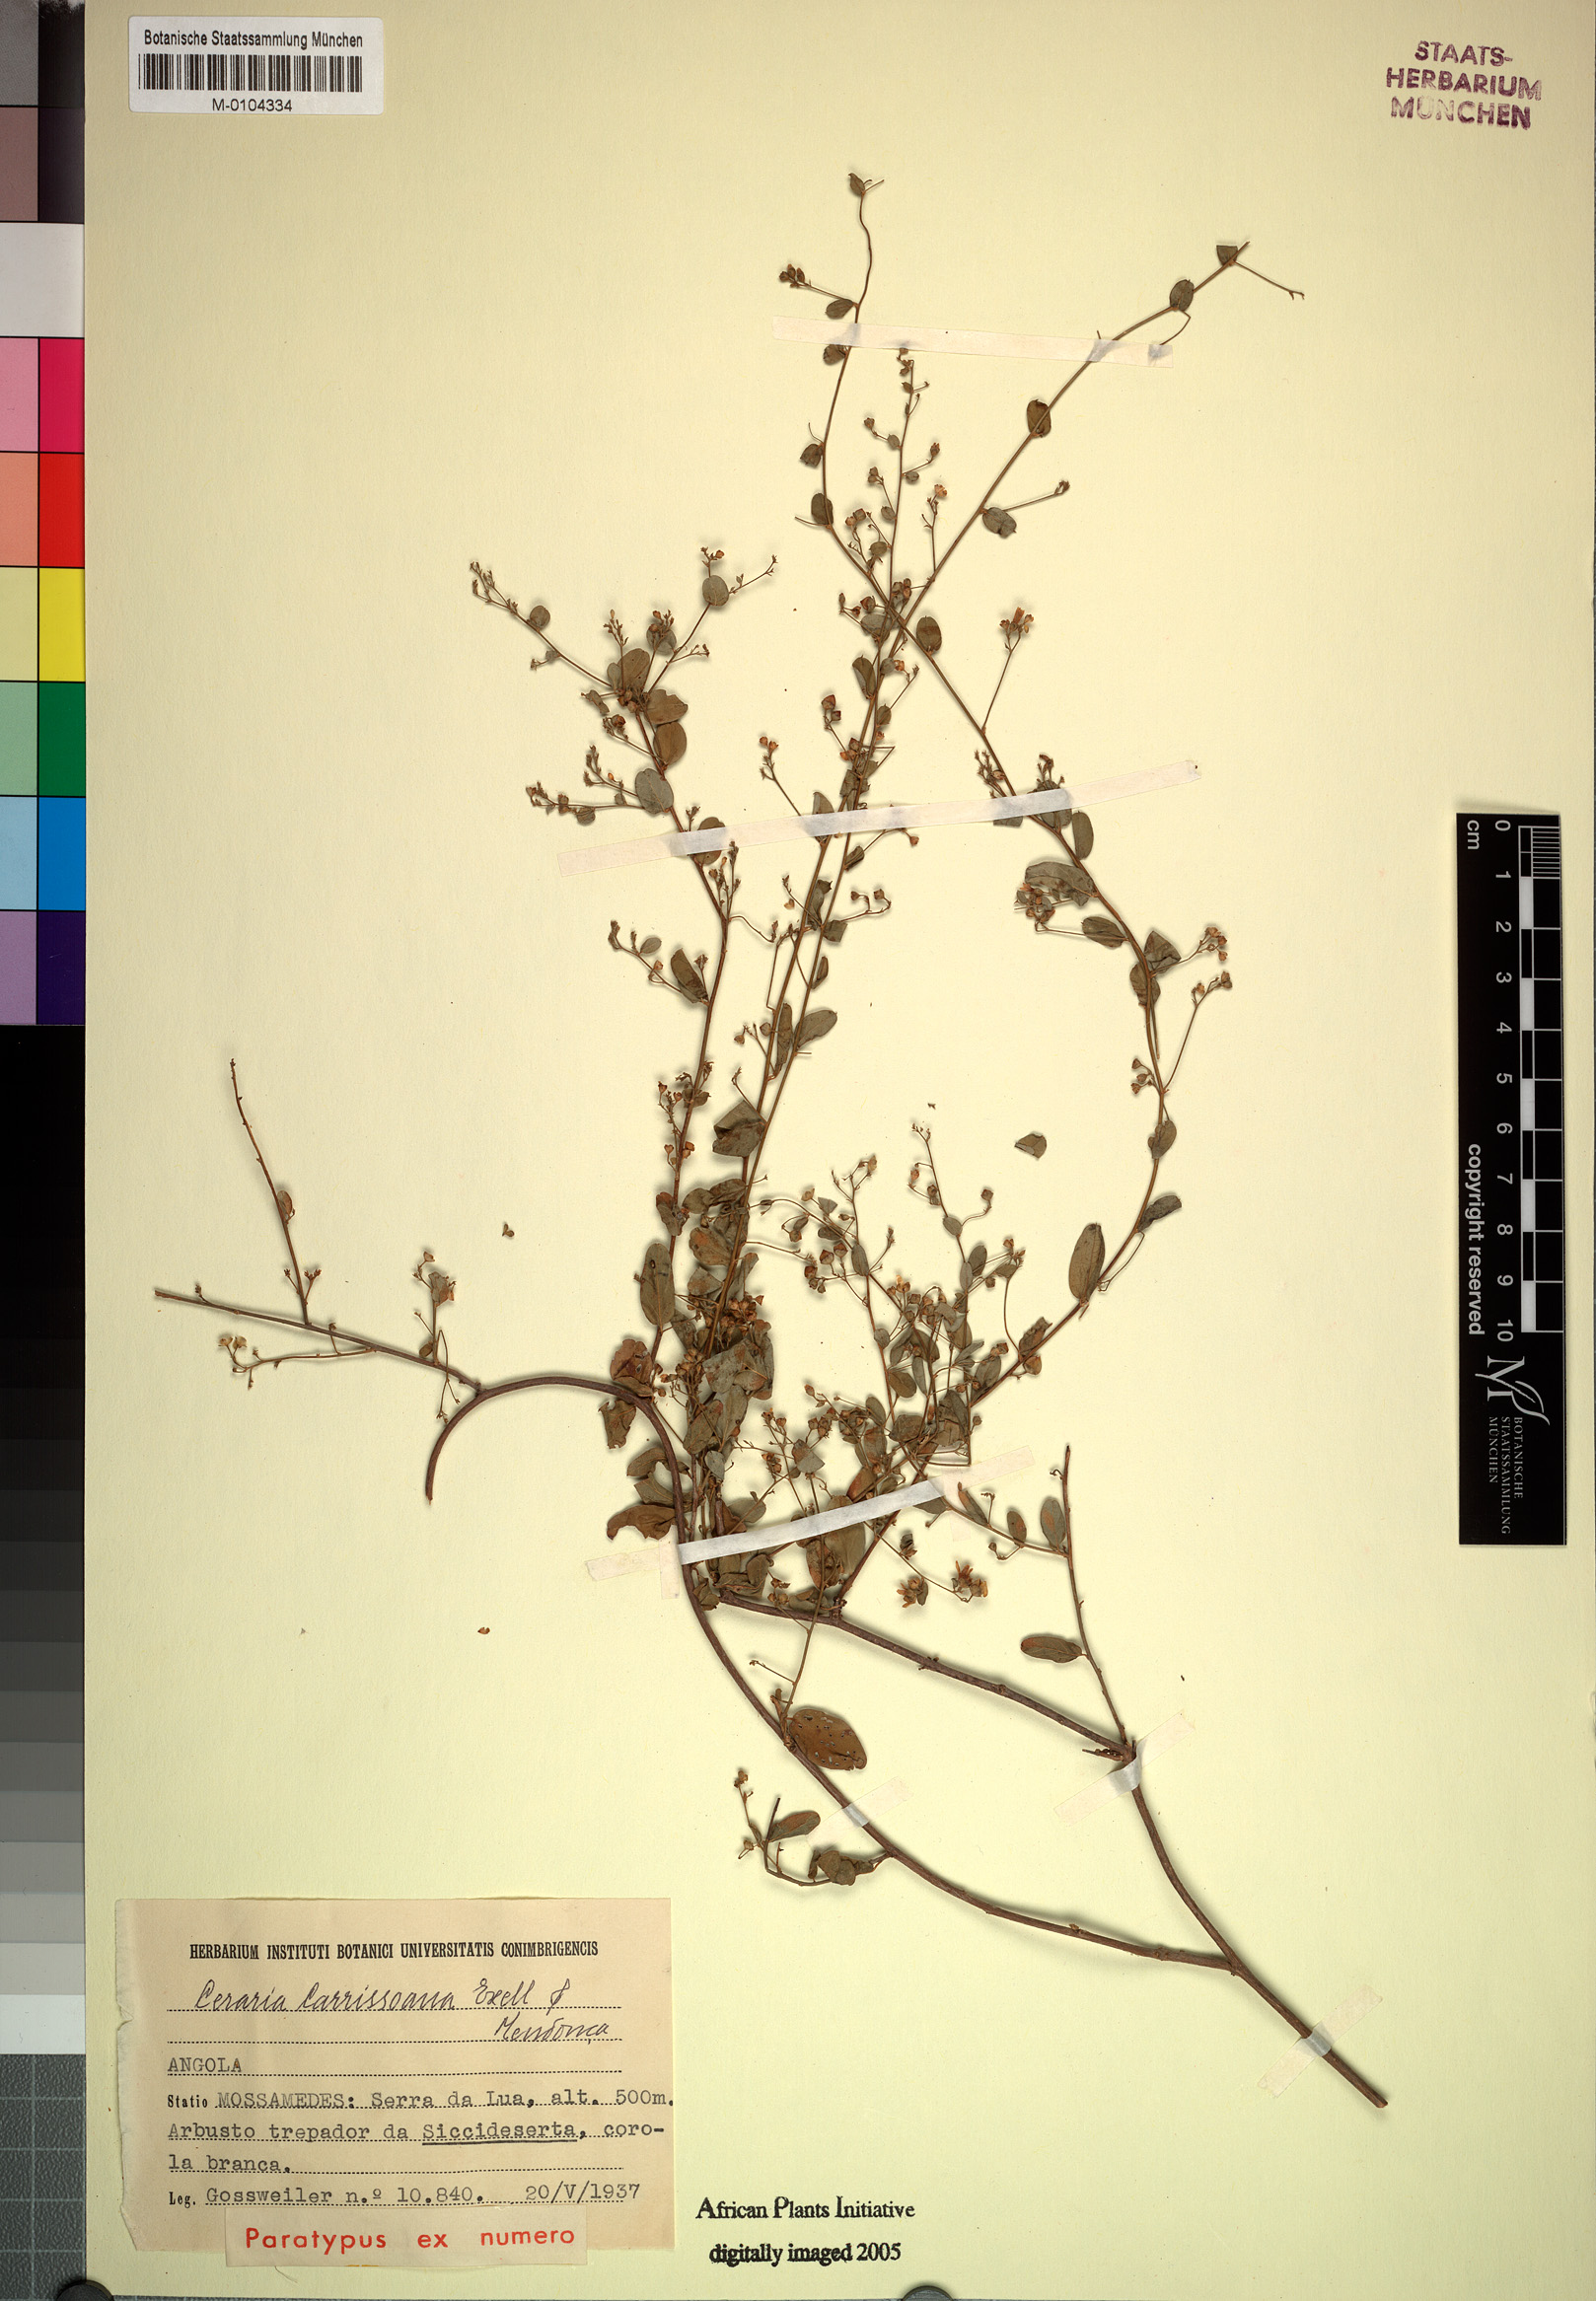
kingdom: Plantae
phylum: Tracheophyta
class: Magnoliopsida
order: Caryophyllales
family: Didiereaceae
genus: Portulacaria
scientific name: Portulacaria carrissoana
